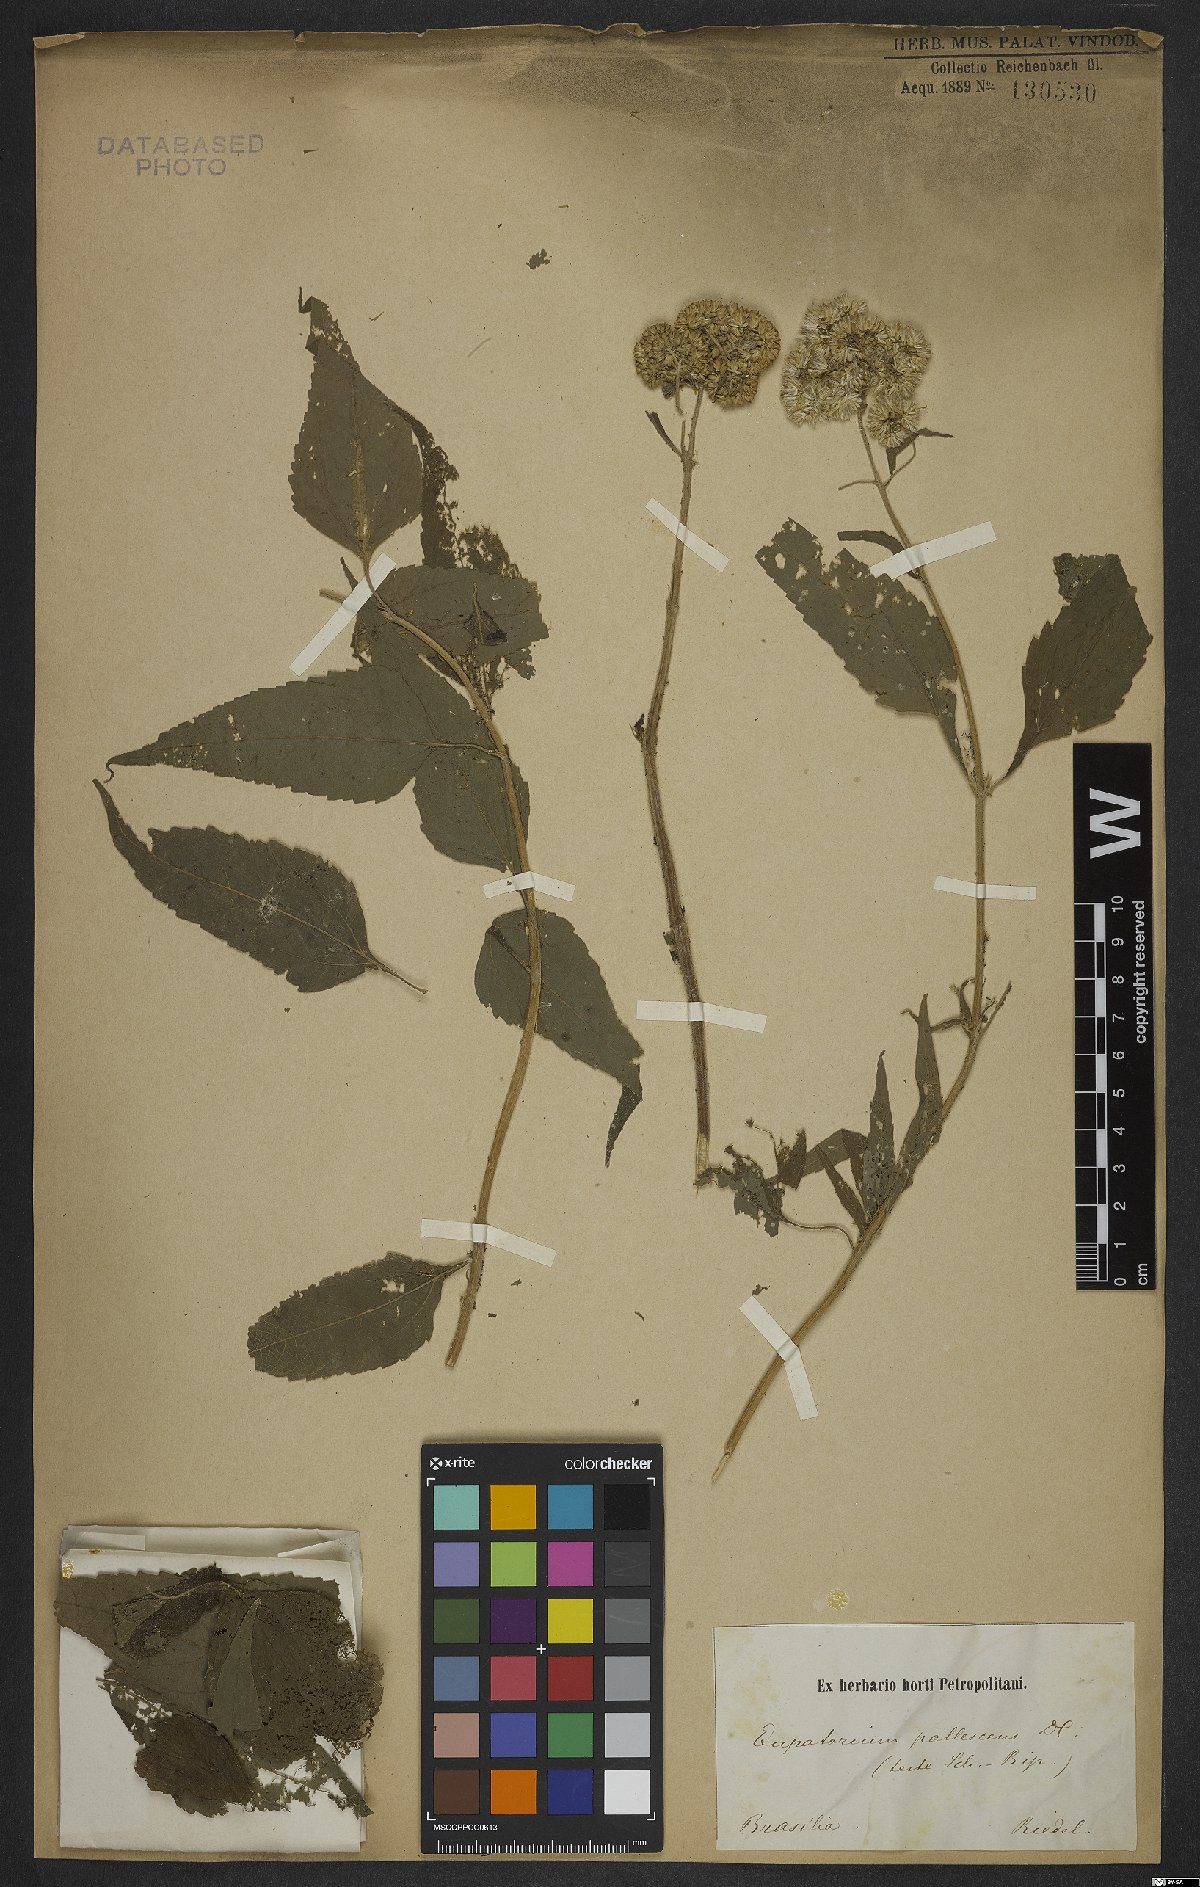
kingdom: Plantae
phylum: Tracheophyta
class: Magnoliopsida
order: Asterales
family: Asteraceae
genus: Austroeupatorium
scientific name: Austroeupatorium inulifolium
